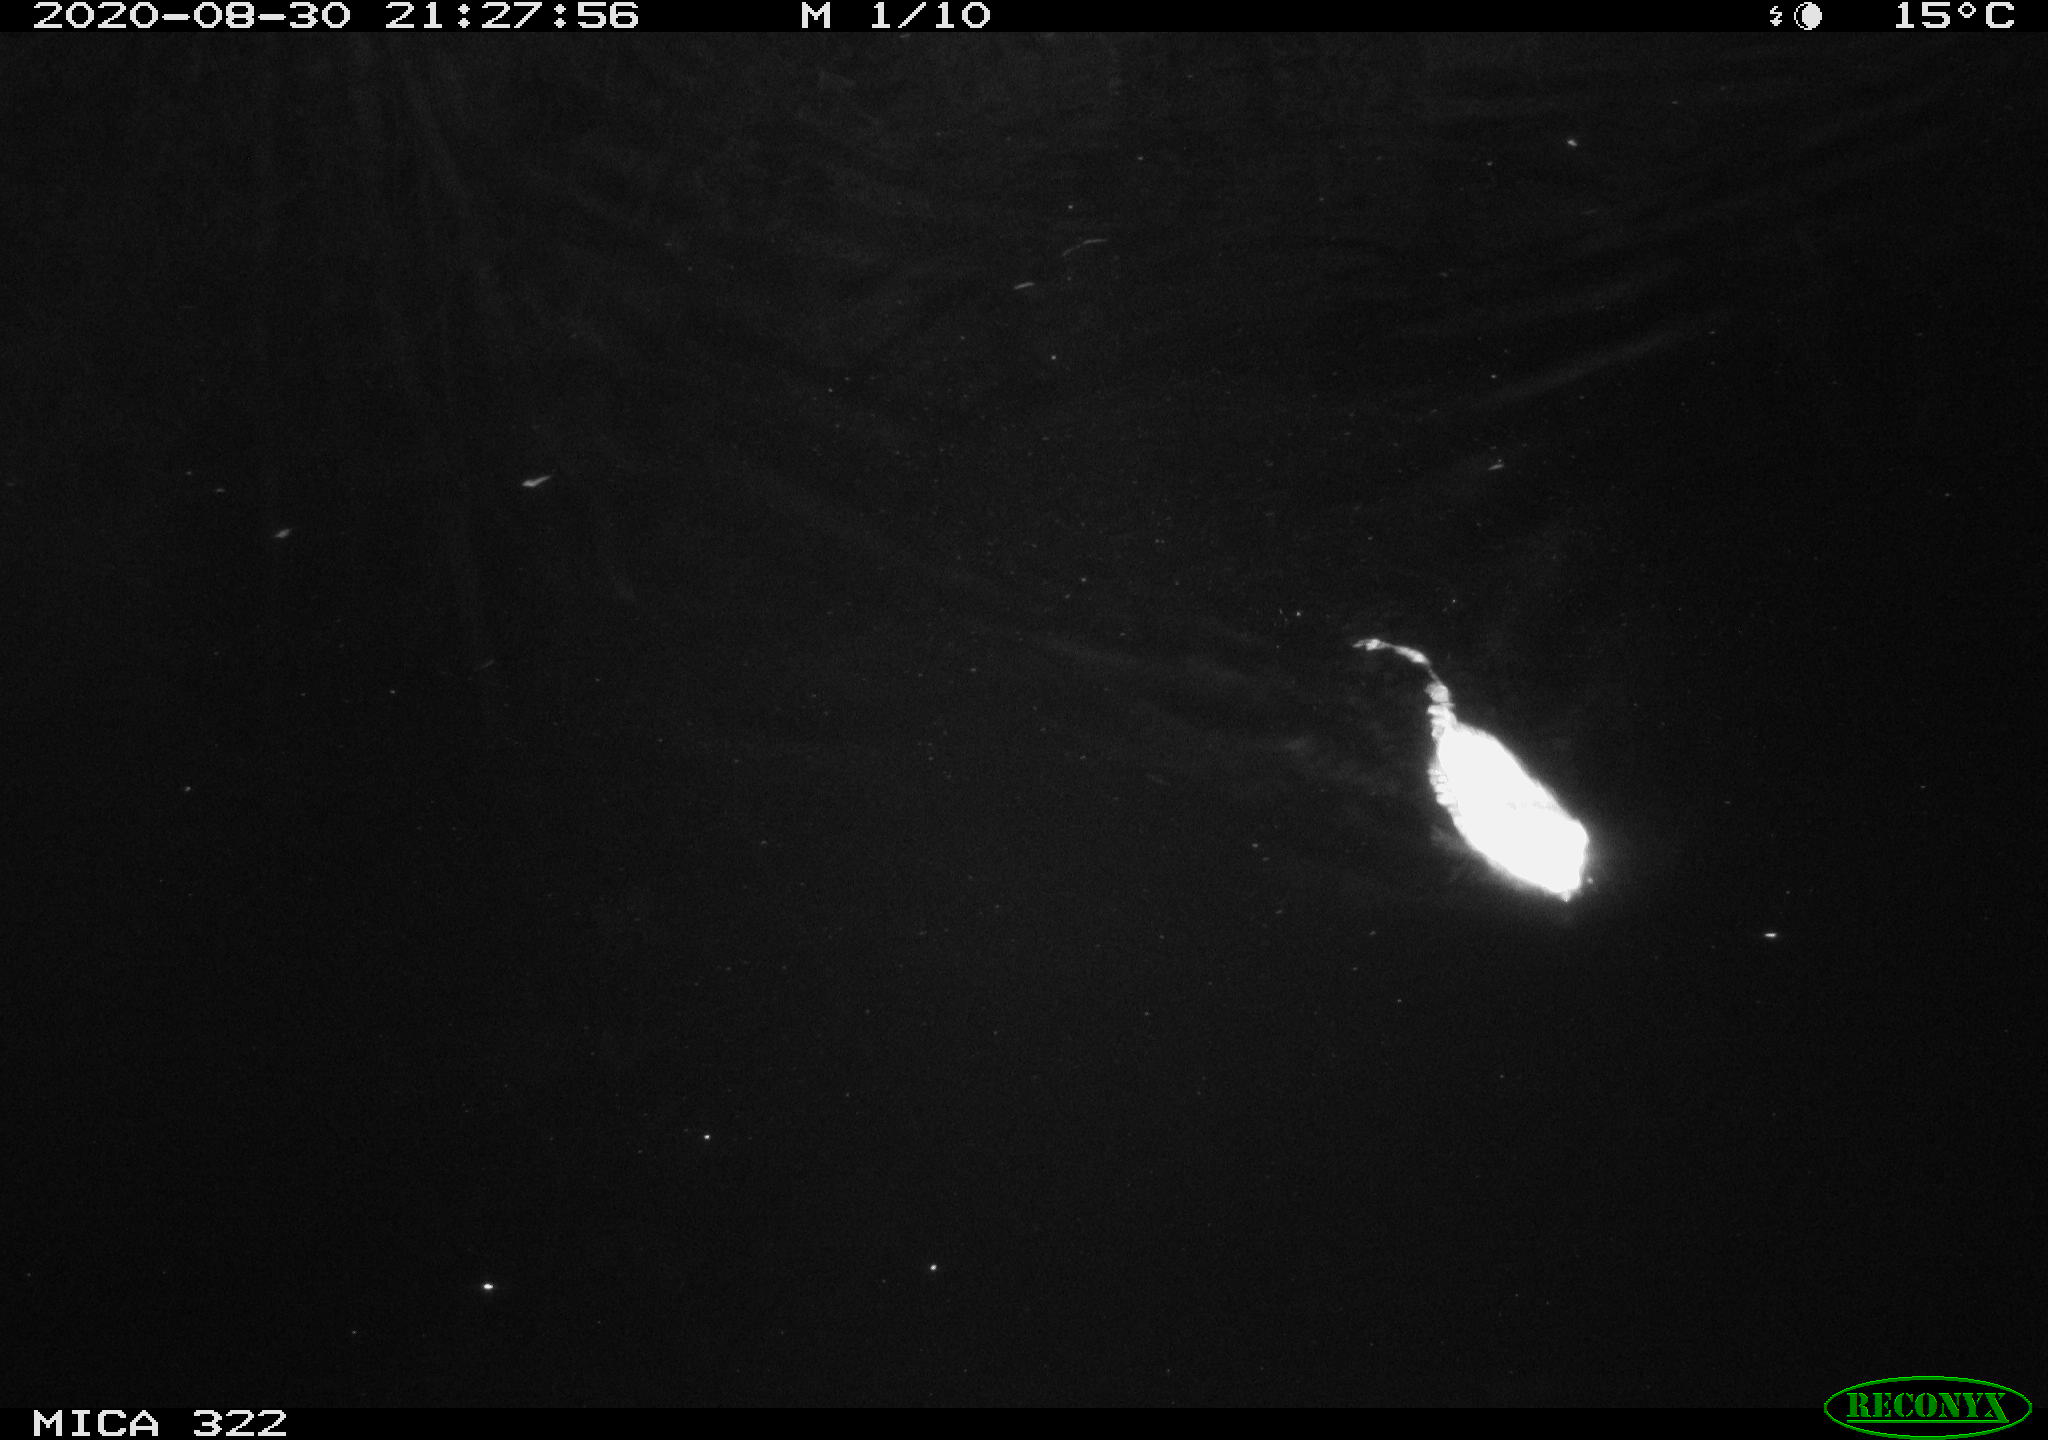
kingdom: Animalia
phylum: Chordata
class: Mammalia
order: Rodentia
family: Muridae
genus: Rattus
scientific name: Rattus norvegicus
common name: Brown rat
